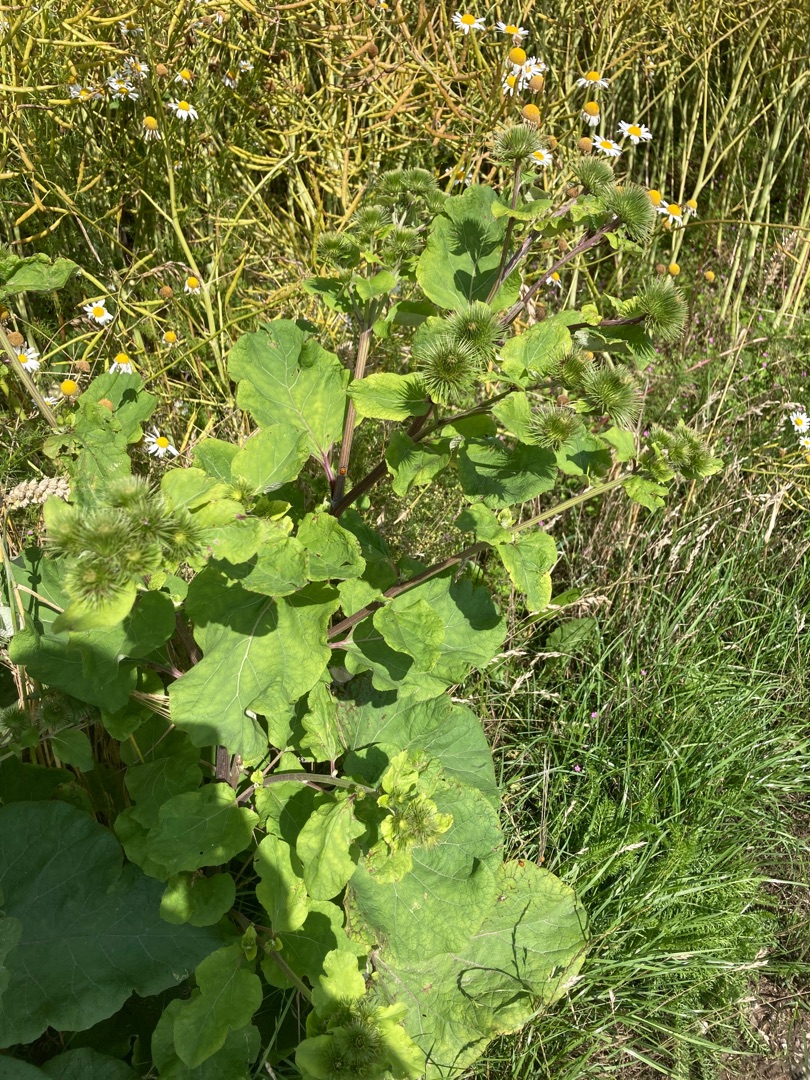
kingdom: Plantae
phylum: Tracheophyta
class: Magnoliopsida
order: Asterales
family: Asteraceae
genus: Arctium
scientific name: Arctium lappa
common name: Glat burre
